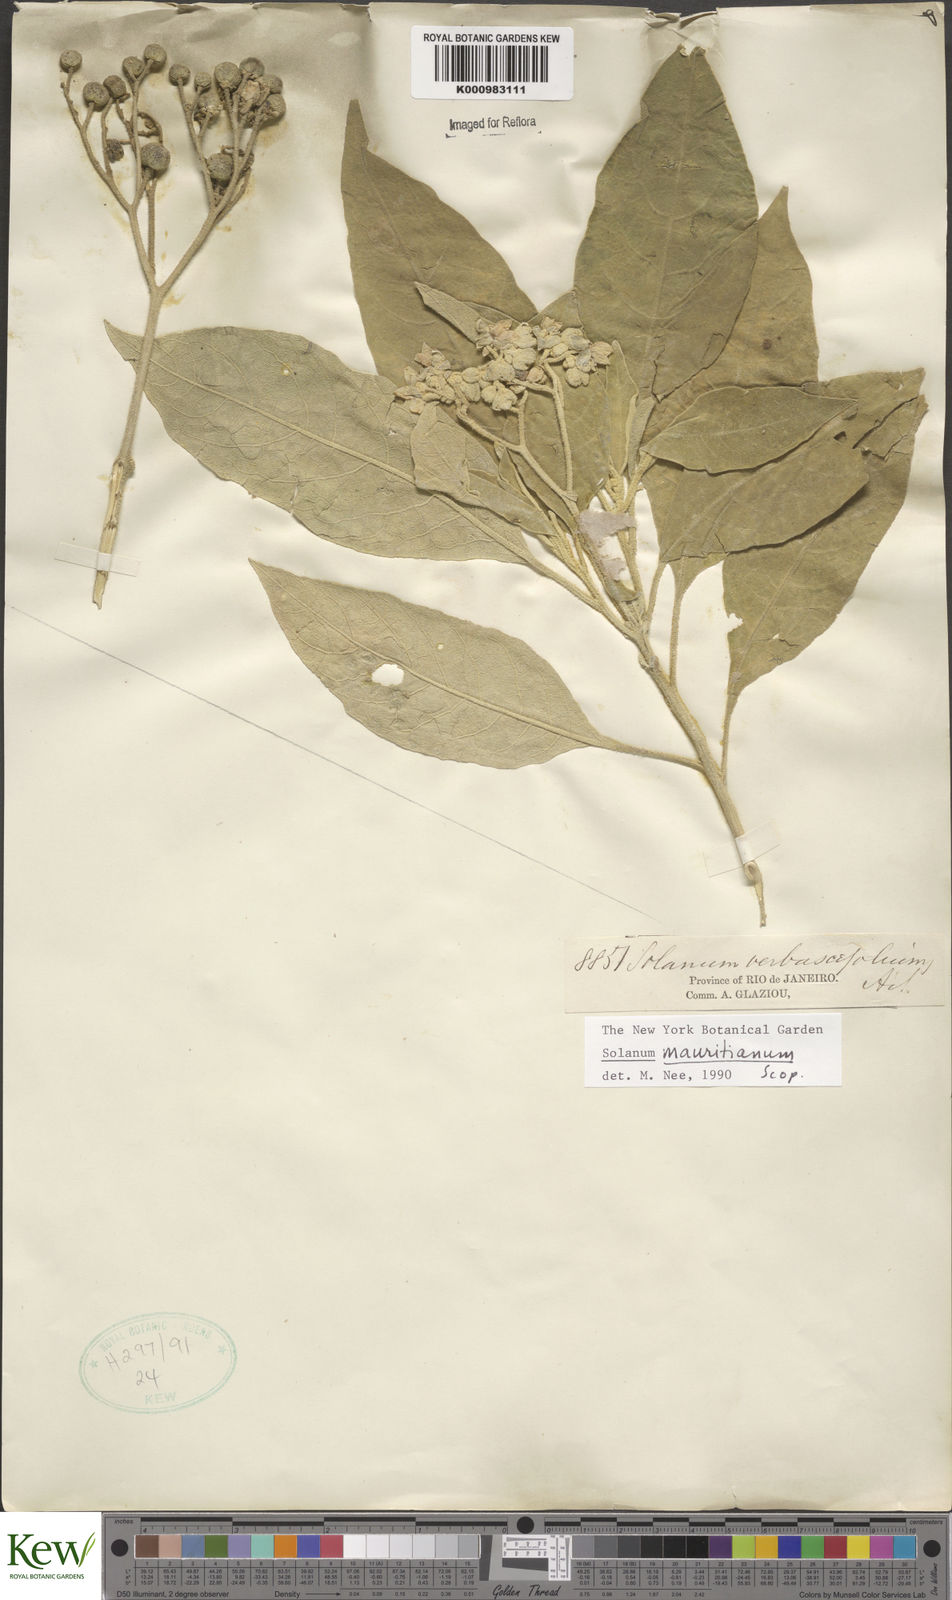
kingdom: Plantae
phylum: Tracheophyta
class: Magnoliopsida
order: Solanales
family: Solanaceae
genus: Solanum
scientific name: Solanum mauritianum
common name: Earleaf nightshade
